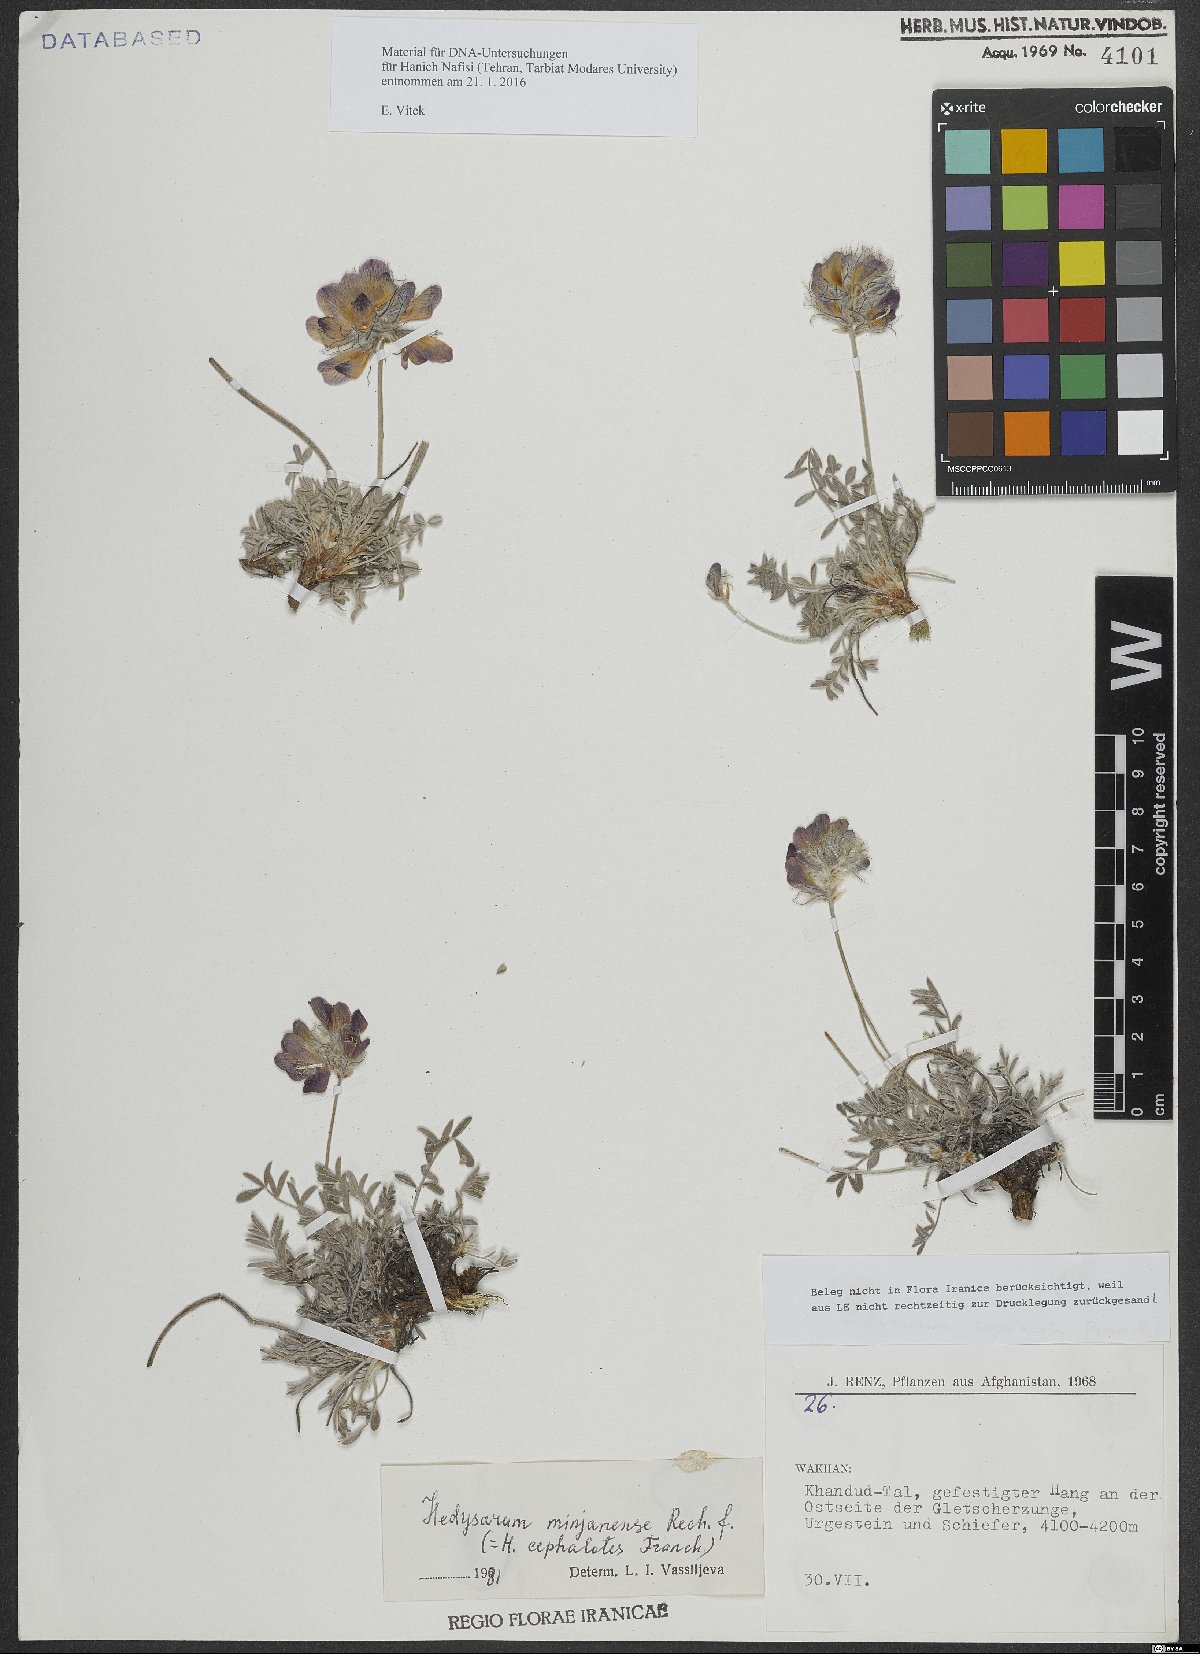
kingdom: Plantae
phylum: Tracheophyta
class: Magnoliopsida
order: Fabales
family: Fabaceae
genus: Hedysarum
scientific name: Hedysarum minjanense
